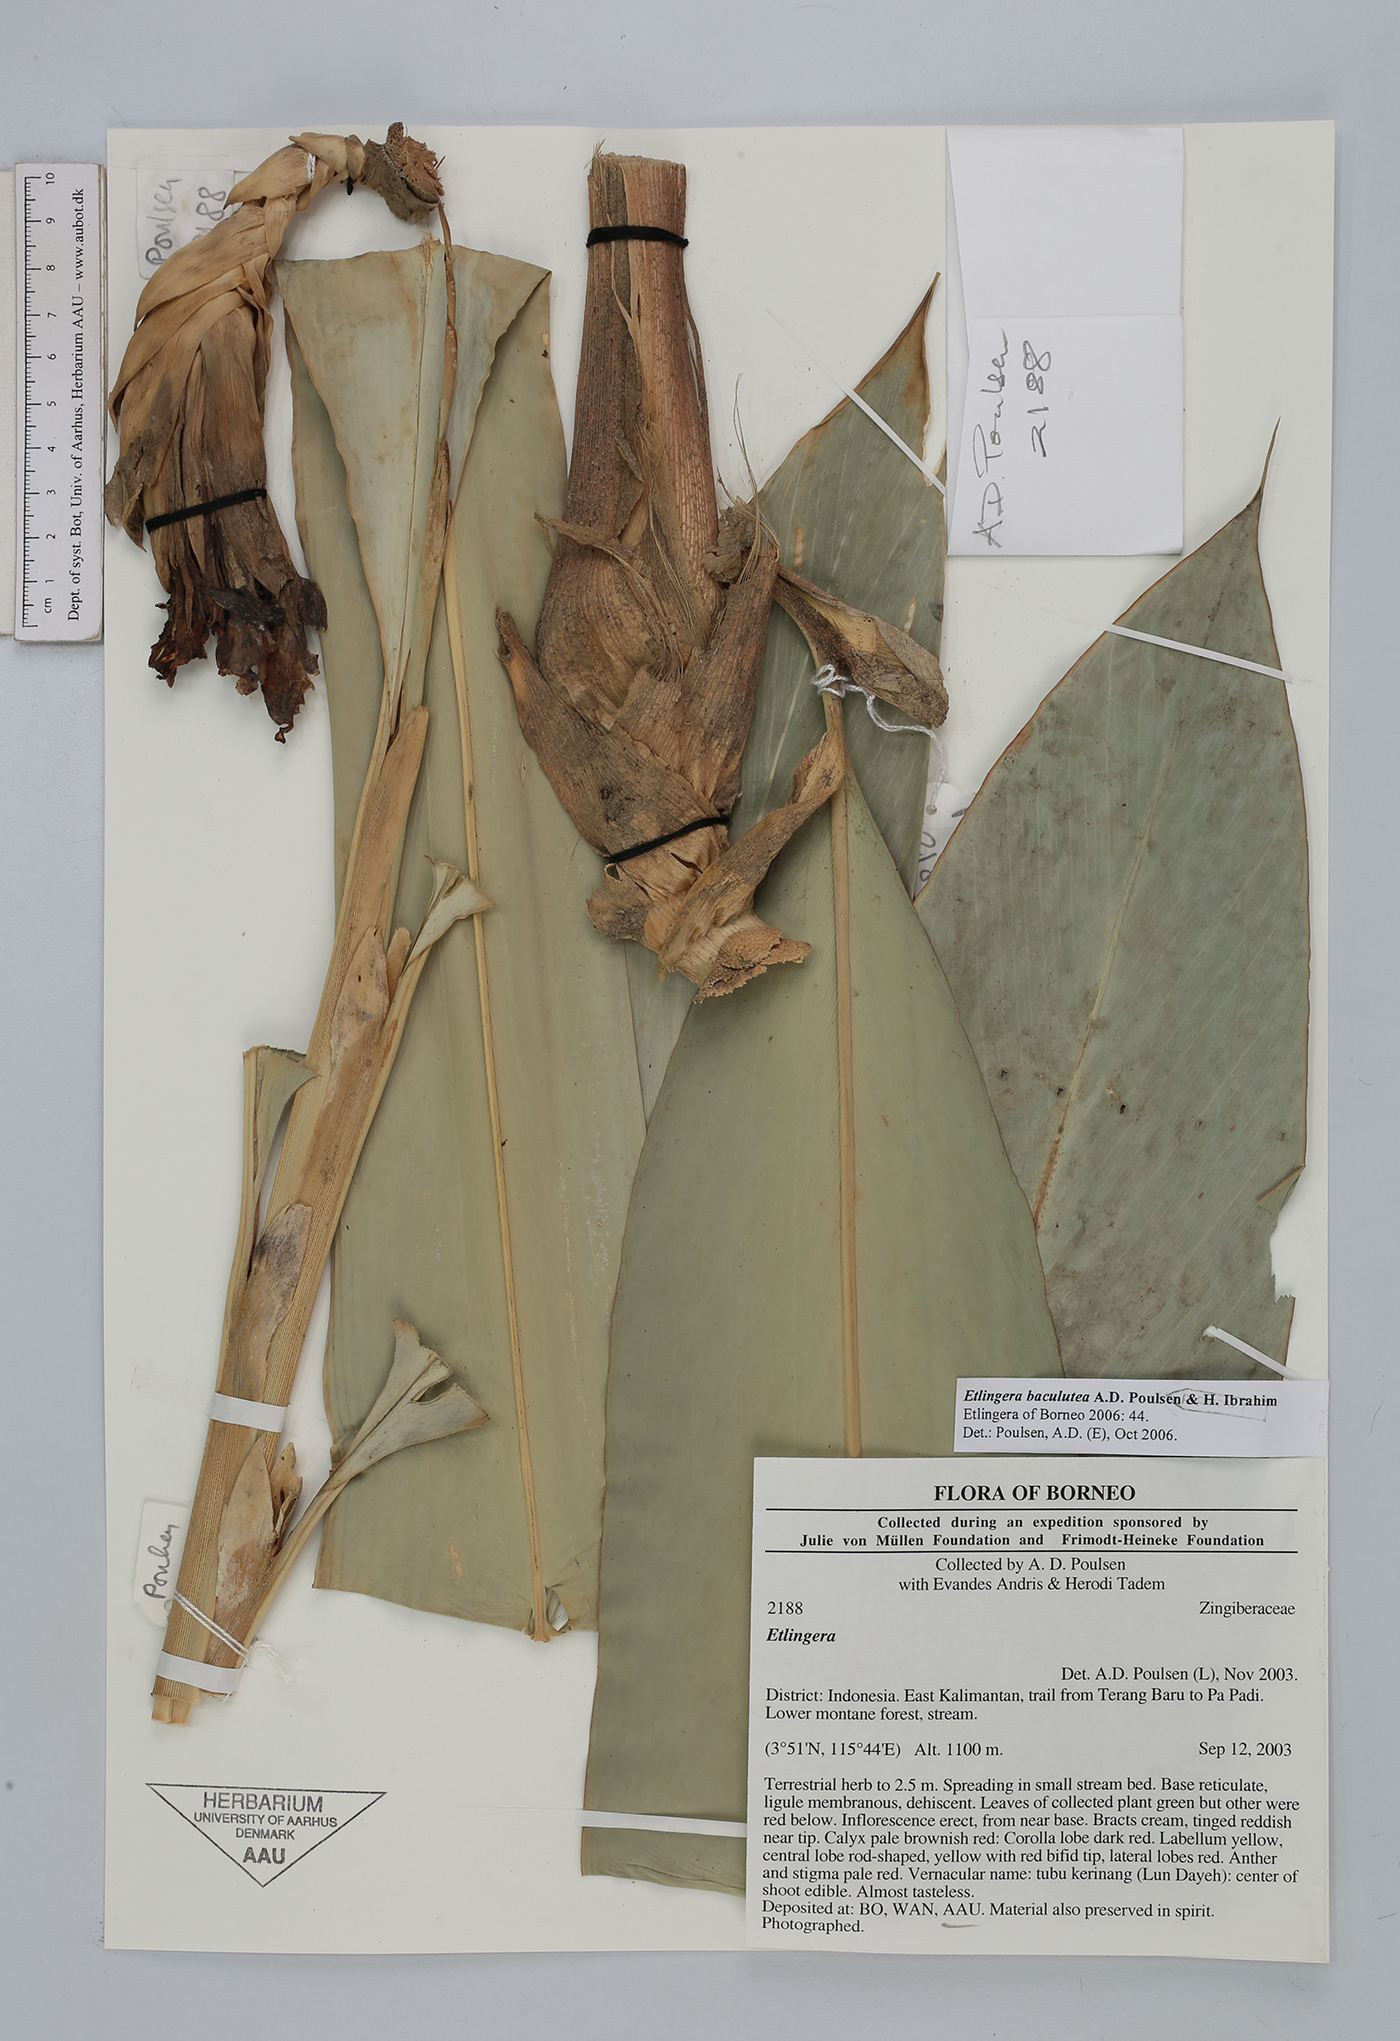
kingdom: Plantae
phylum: Tracheophyta
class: Liliopsida
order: Zingiberales
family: Zingiberaceae
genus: Etlingera
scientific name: Etlingera baculutea
